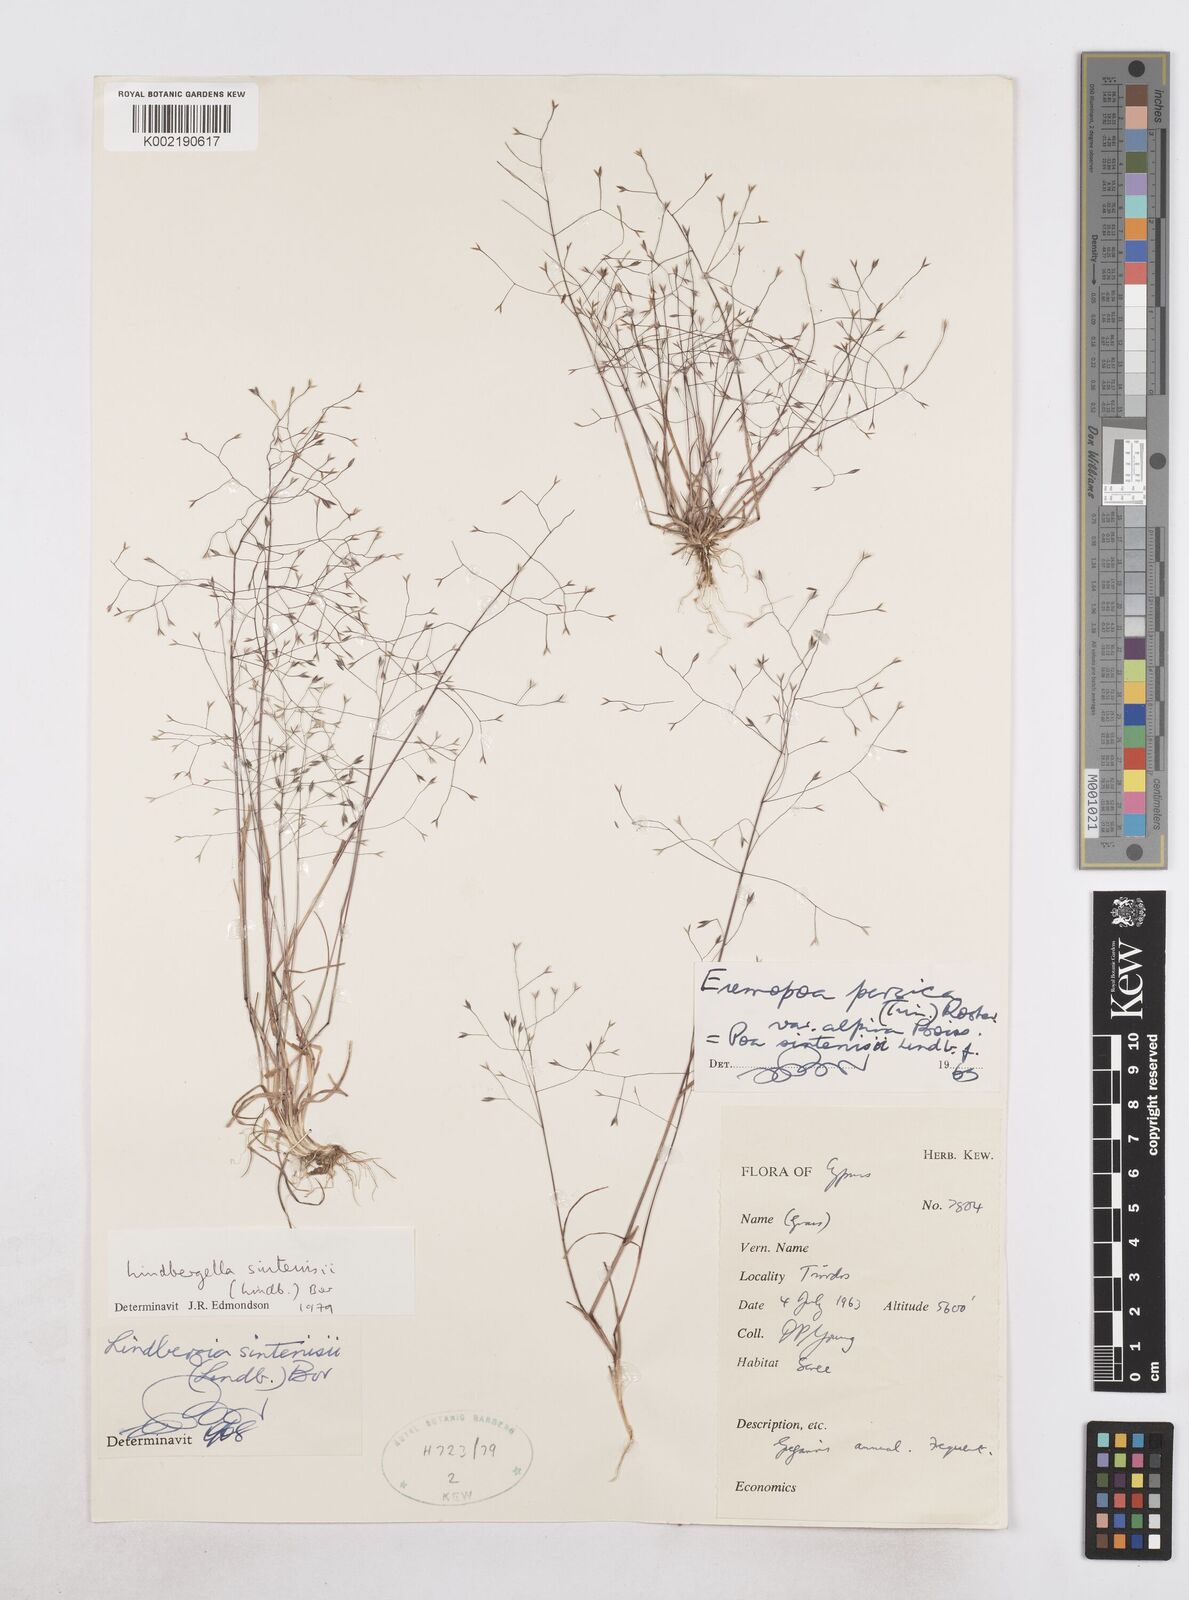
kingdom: Plantae
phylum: Tracheophyta
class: Liliopsida
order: Poales
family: Poaceae
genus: Poa
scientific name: Poa sintenisii
